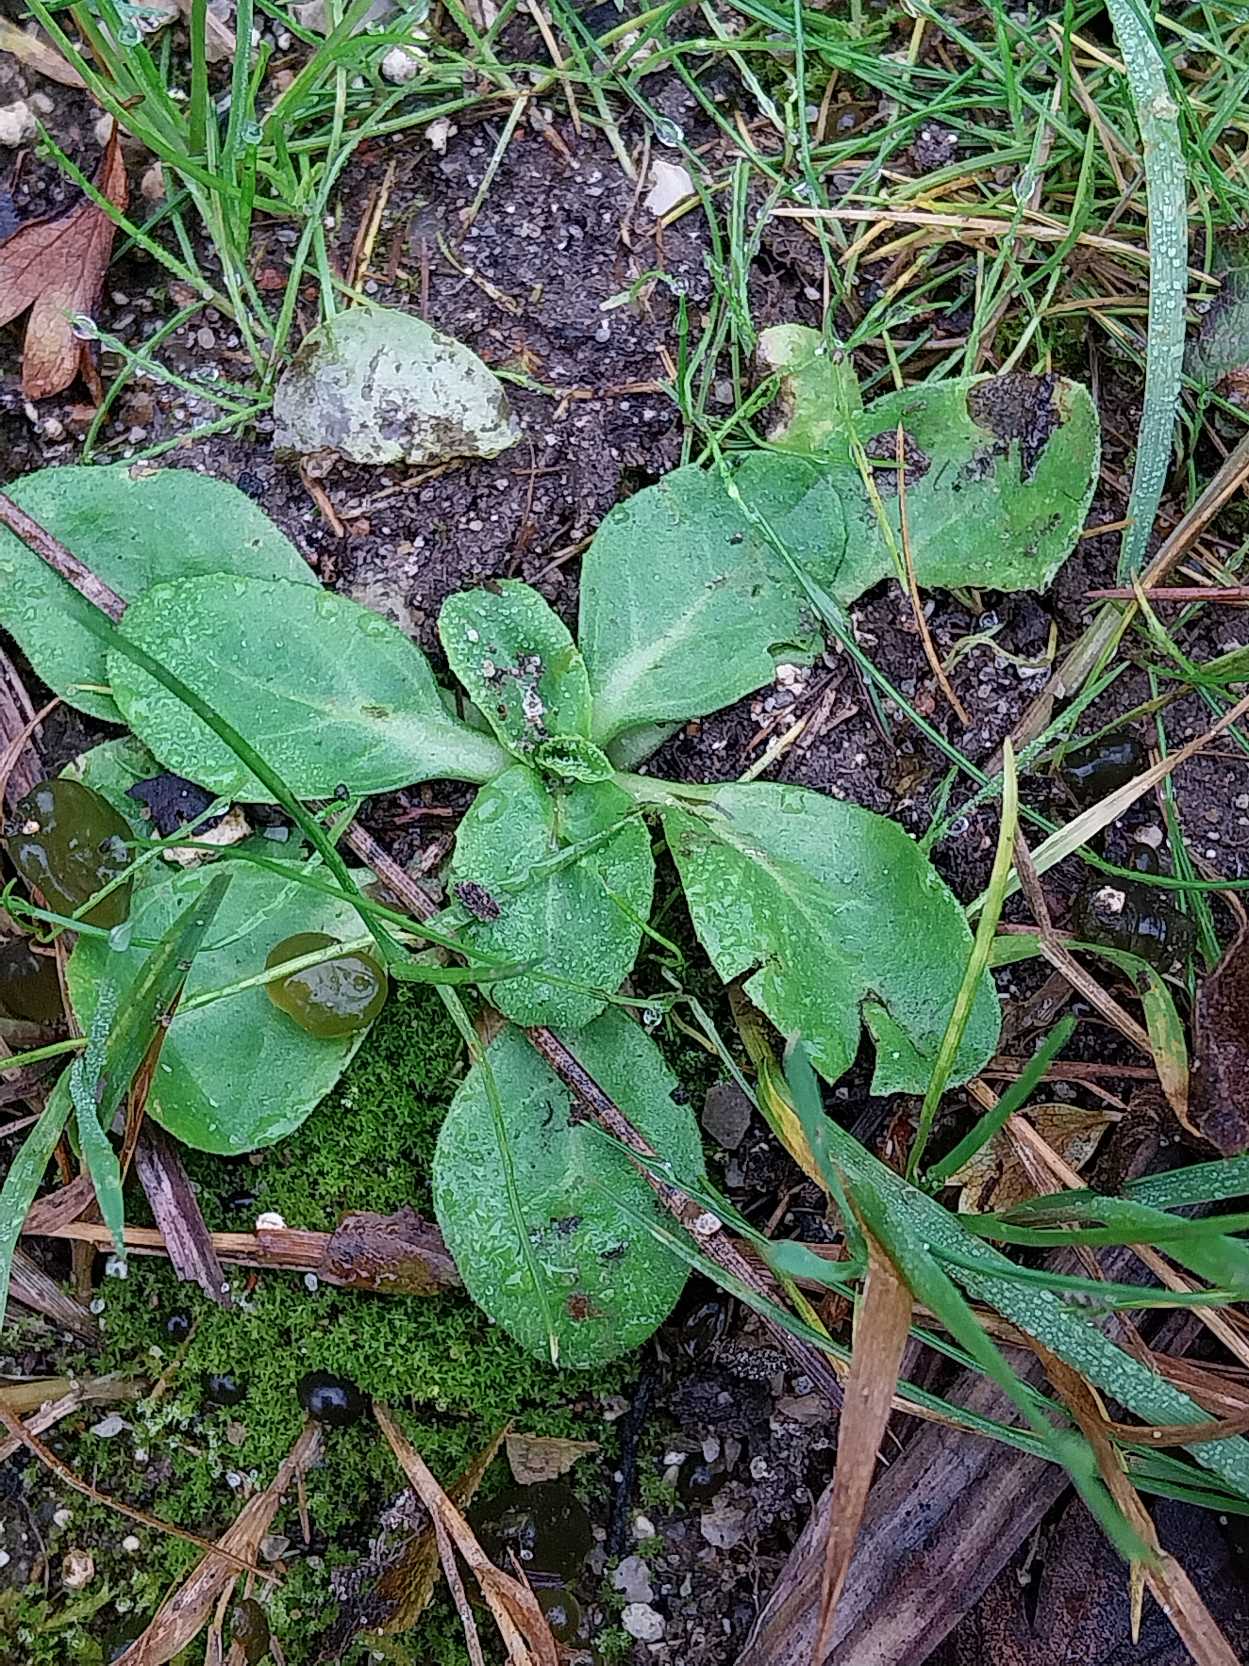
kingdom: Plantae
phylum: Tracheophyta
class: Magnoliopsida
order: Asterales
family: Asteraceae
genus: Bellis
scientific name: Bellis perennis
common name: Tusindfryd
